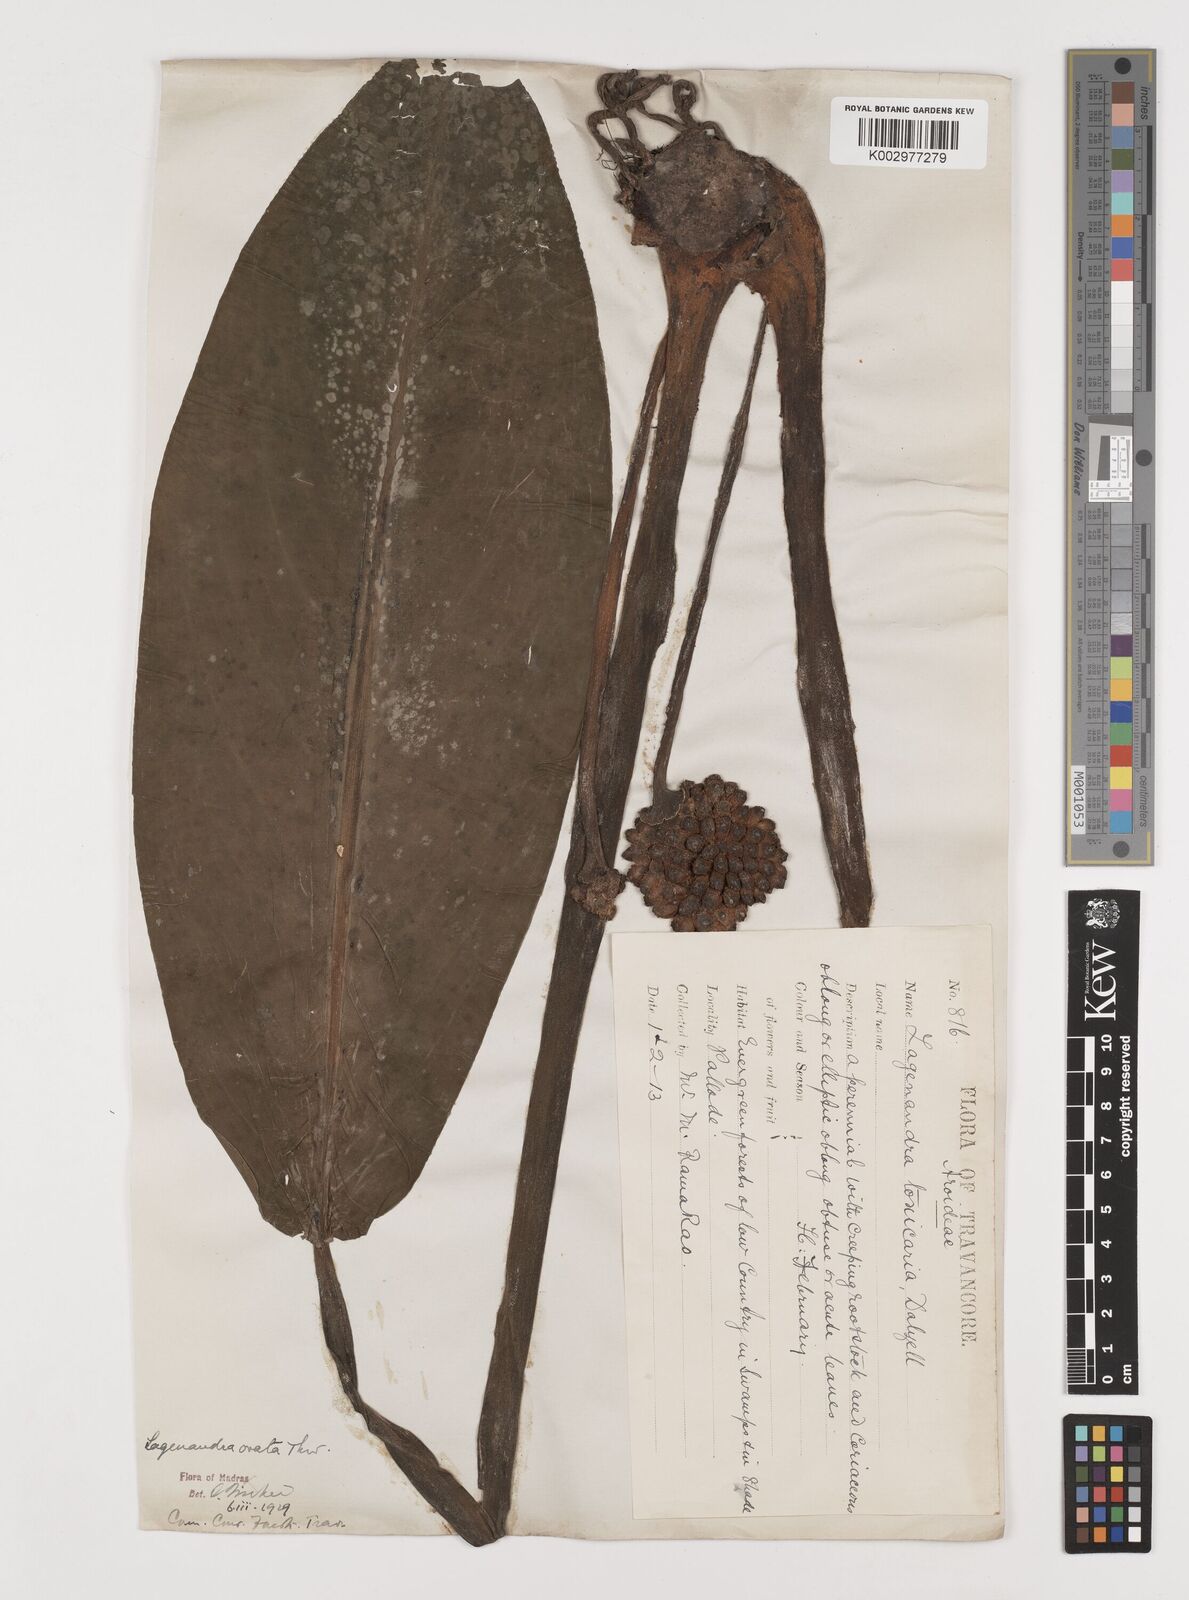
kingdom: Plantae
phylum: Tracheophyta
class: Liliopsida
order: Alismatales
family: Araceae
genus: Lagenandra
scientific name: Lagenandra ovata
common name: Malayan sword
